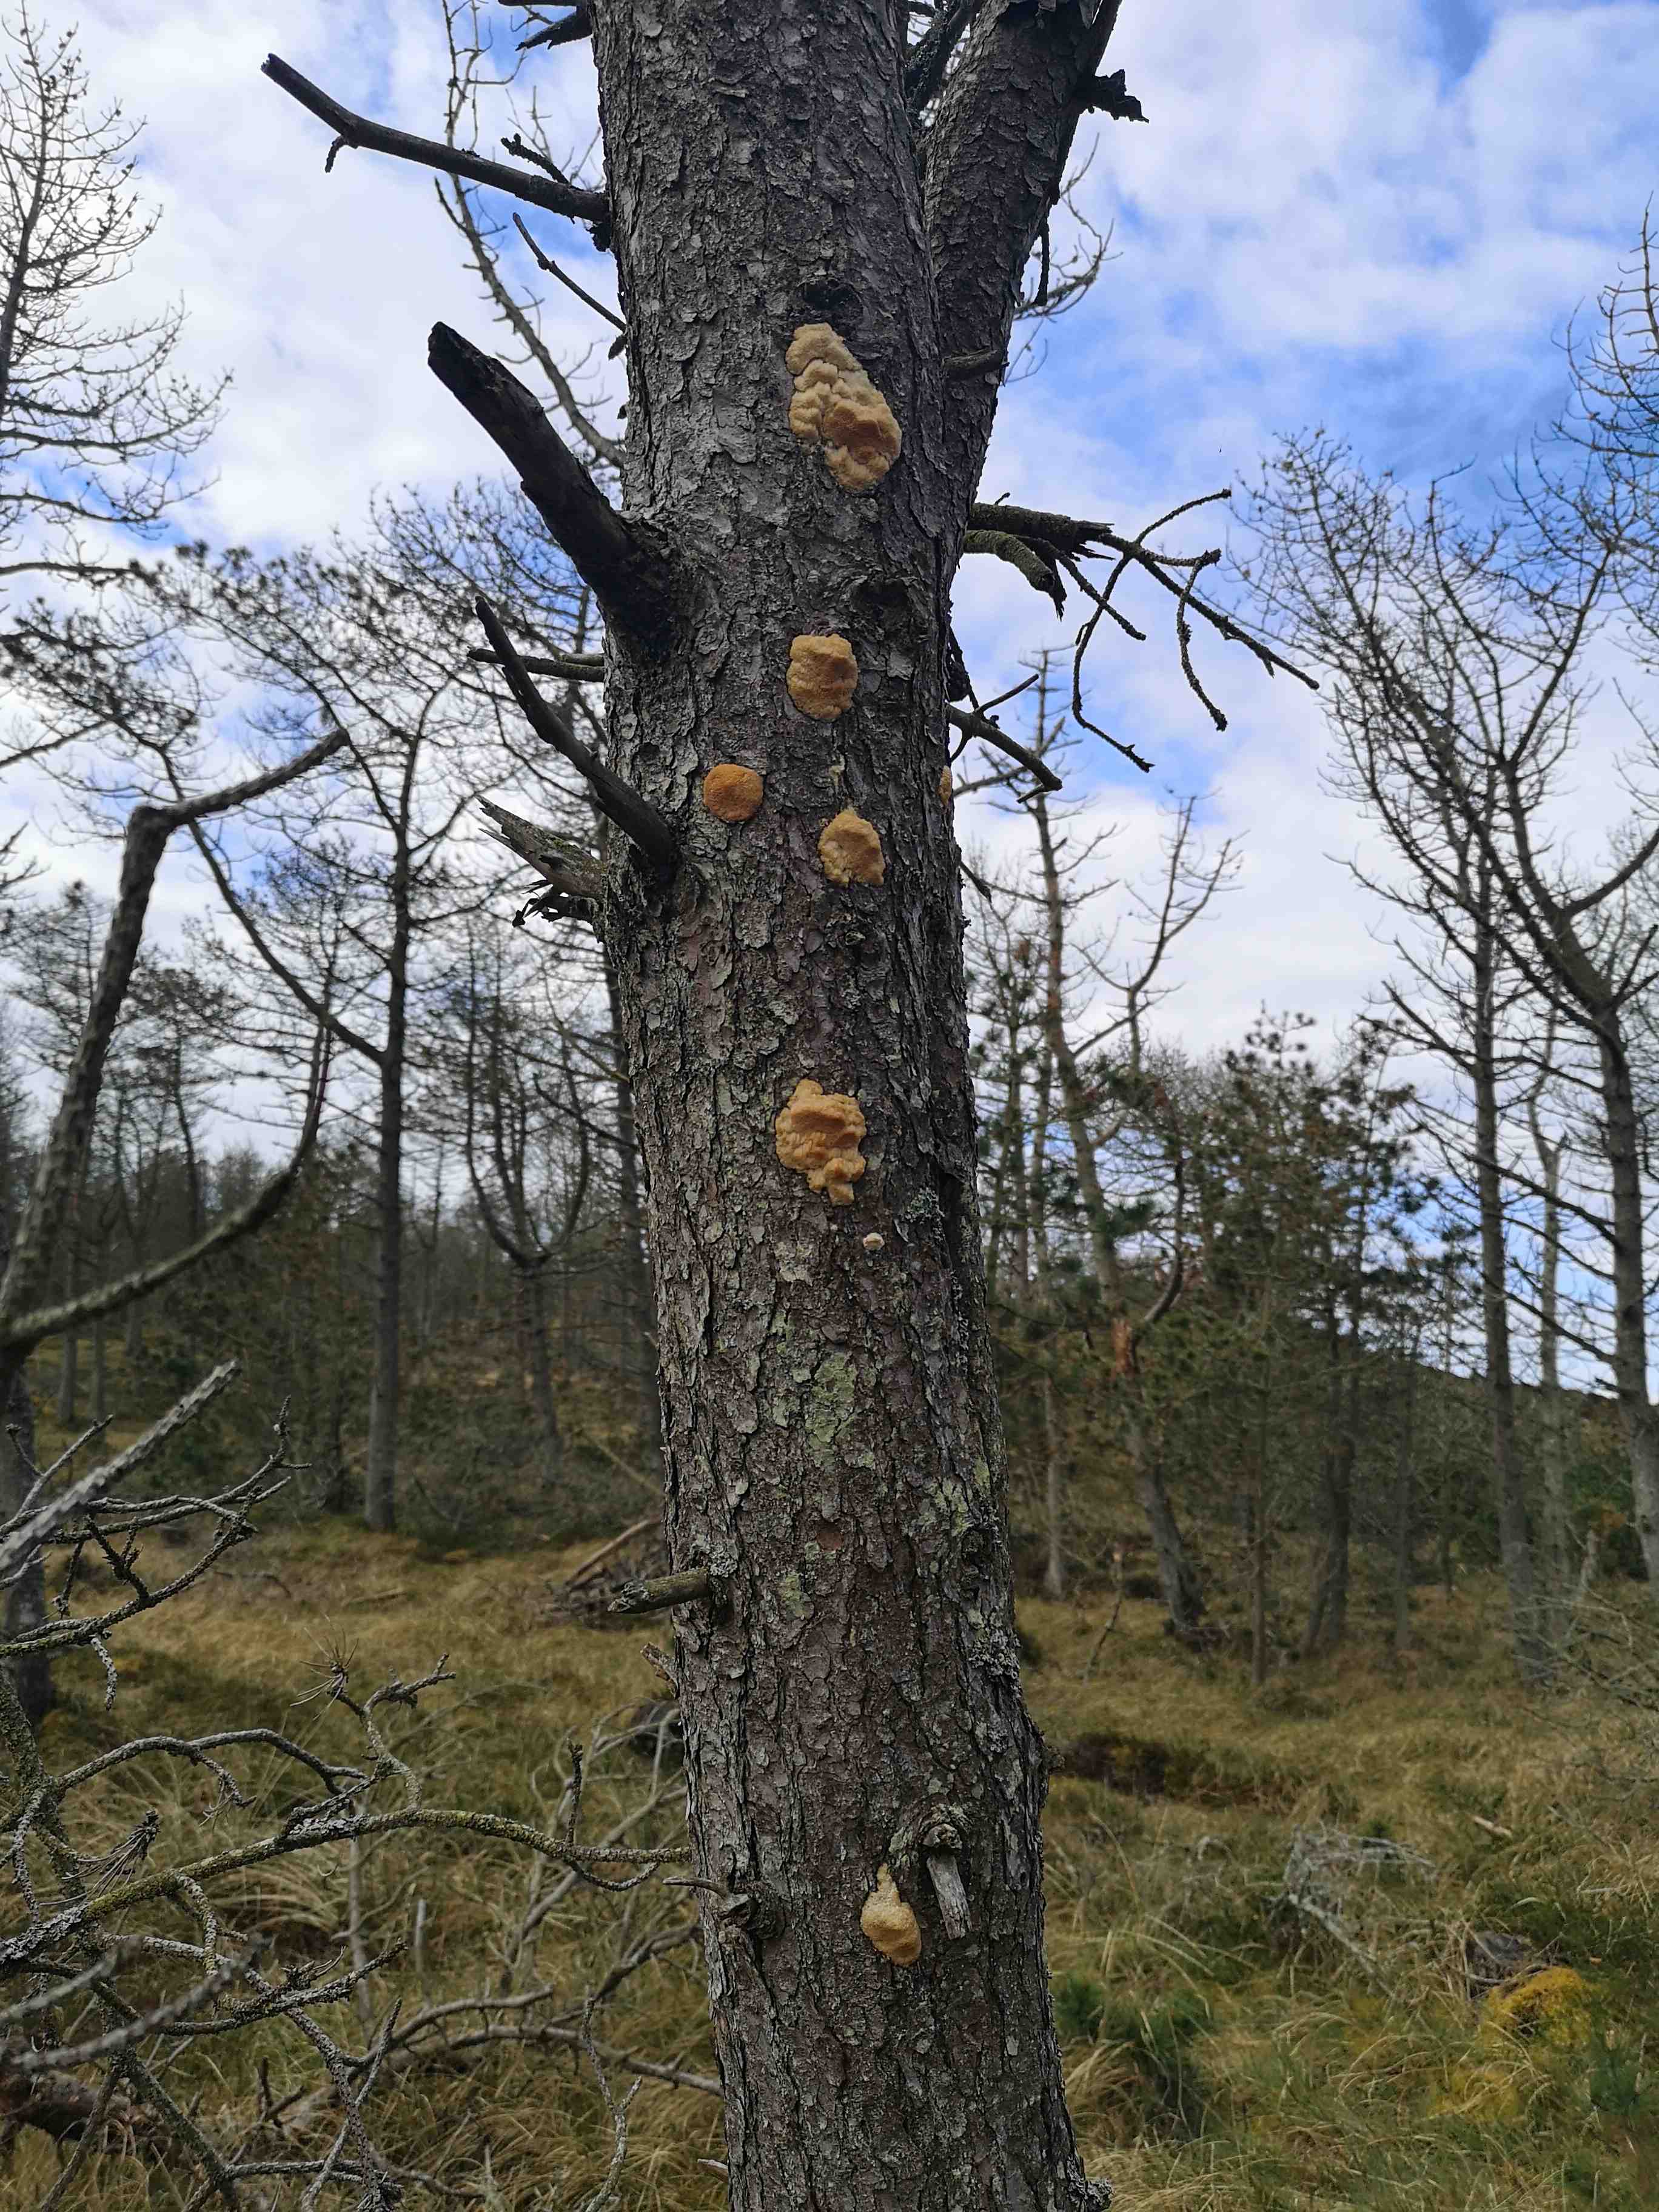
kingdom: Fungi
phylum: Basidiomycota
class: Agaricomycetes
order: Polyporales
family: Polyporaceae
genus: Diplomitoporus
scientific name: Diplomitoporus flavescens
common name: fyrre-elastikporesvamp
